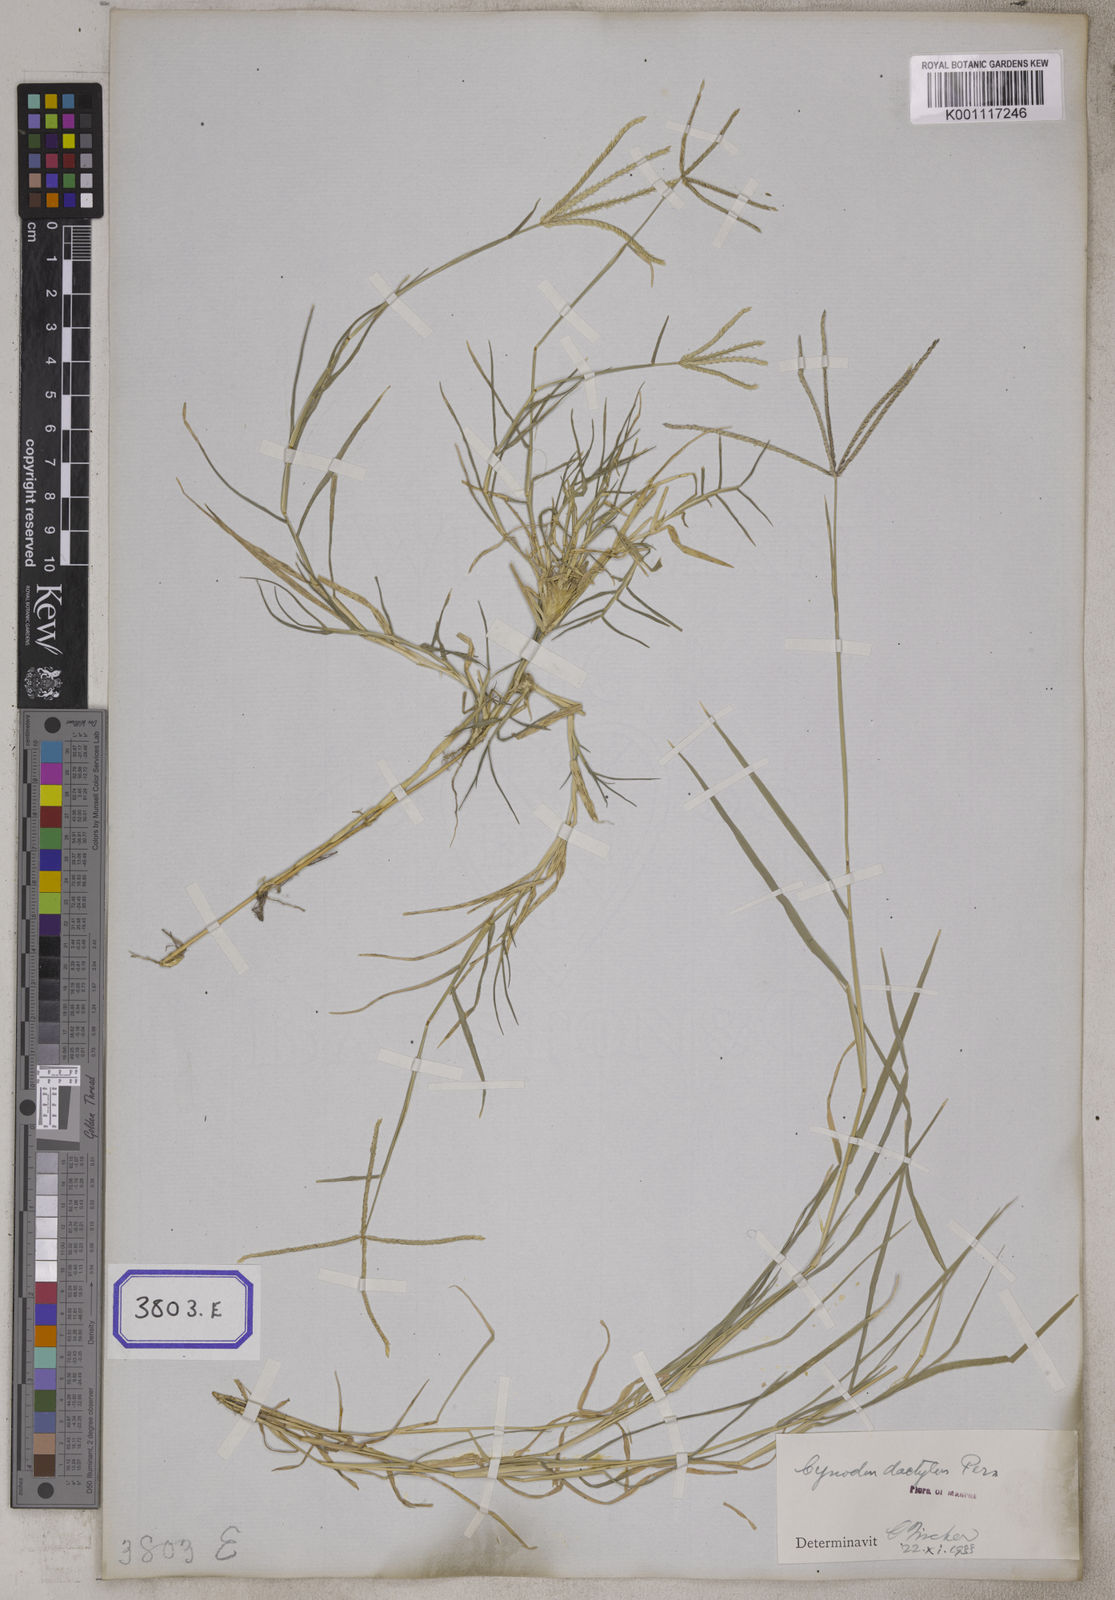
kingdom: Plantae
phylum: Tracheophyta
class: Liliopsida
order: Poales
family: Poaceae
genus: Cynodon
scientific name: Cynodon dactylon
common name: Bermuda grass
